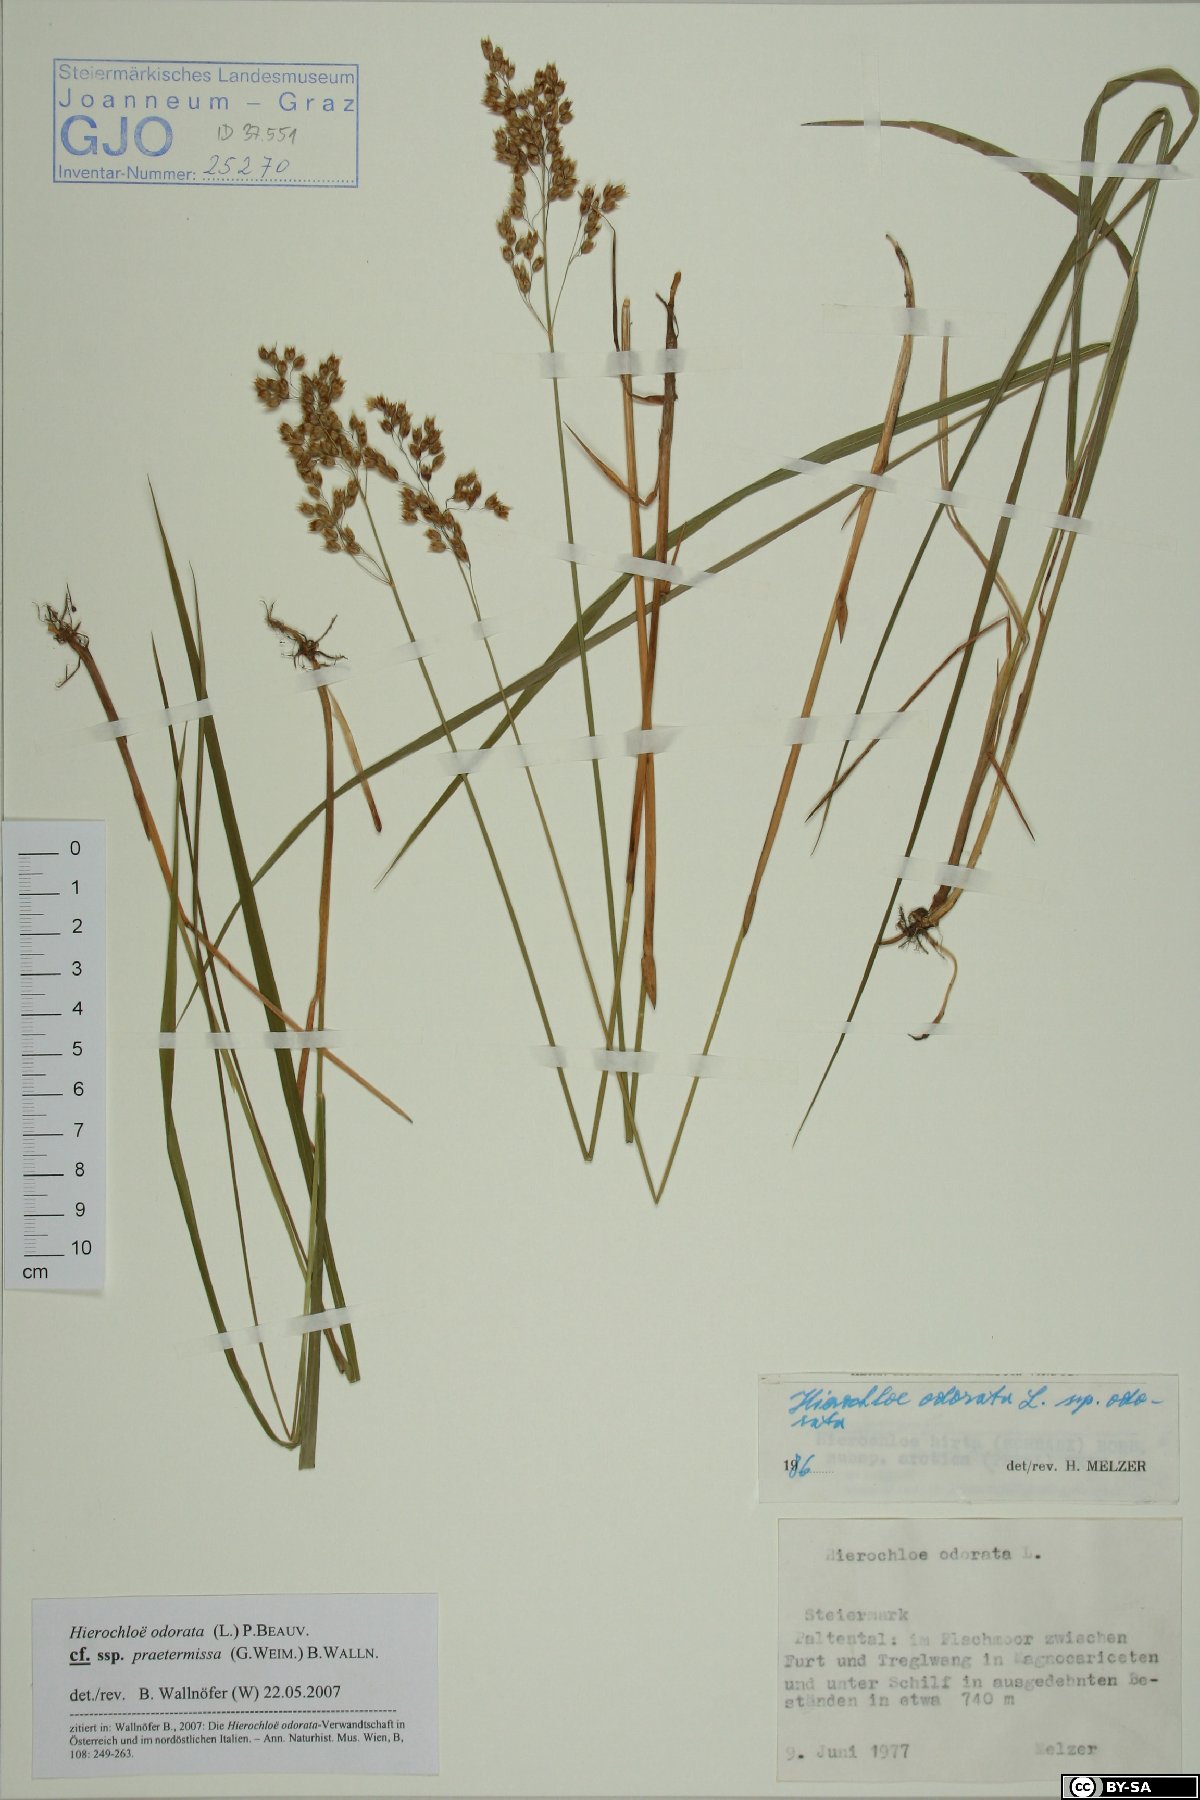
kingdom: Plantae
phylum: Tracheophyta
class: Liliopsida
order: Poales
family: Poaceae
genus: Anthoxanthum
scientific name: Anthoxanthum nitens
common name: Holy grass
